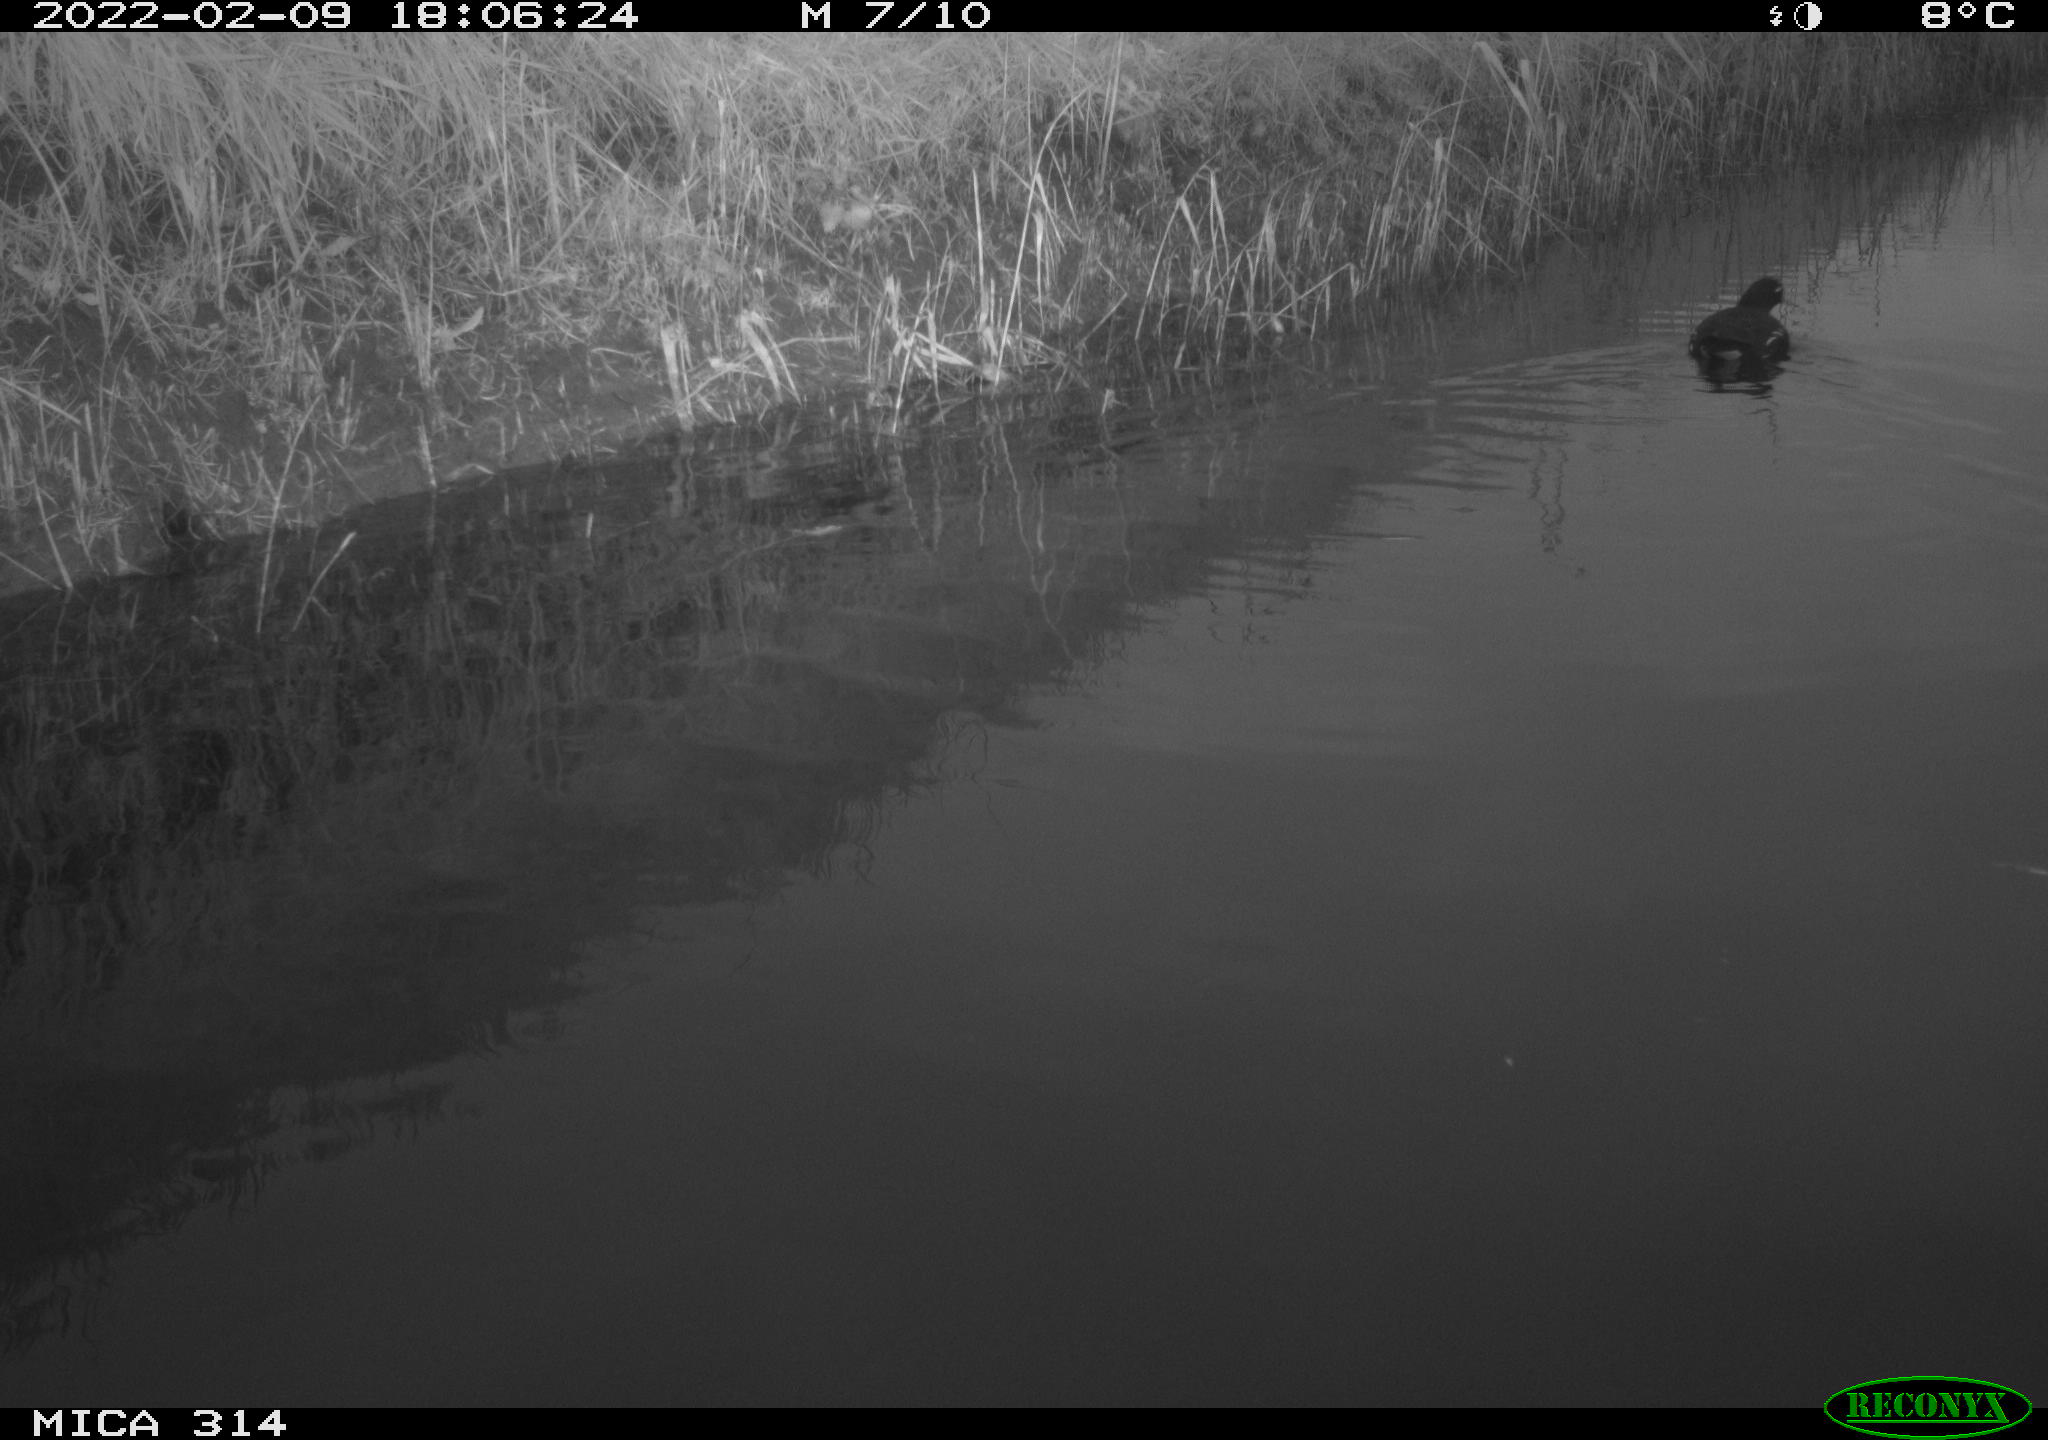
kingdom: Animalia
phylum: Chordata
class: Aves
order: Gruiformes
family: Rallidae
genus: Gallinula
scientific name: Gallinula chloropus
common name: Common moorhen
